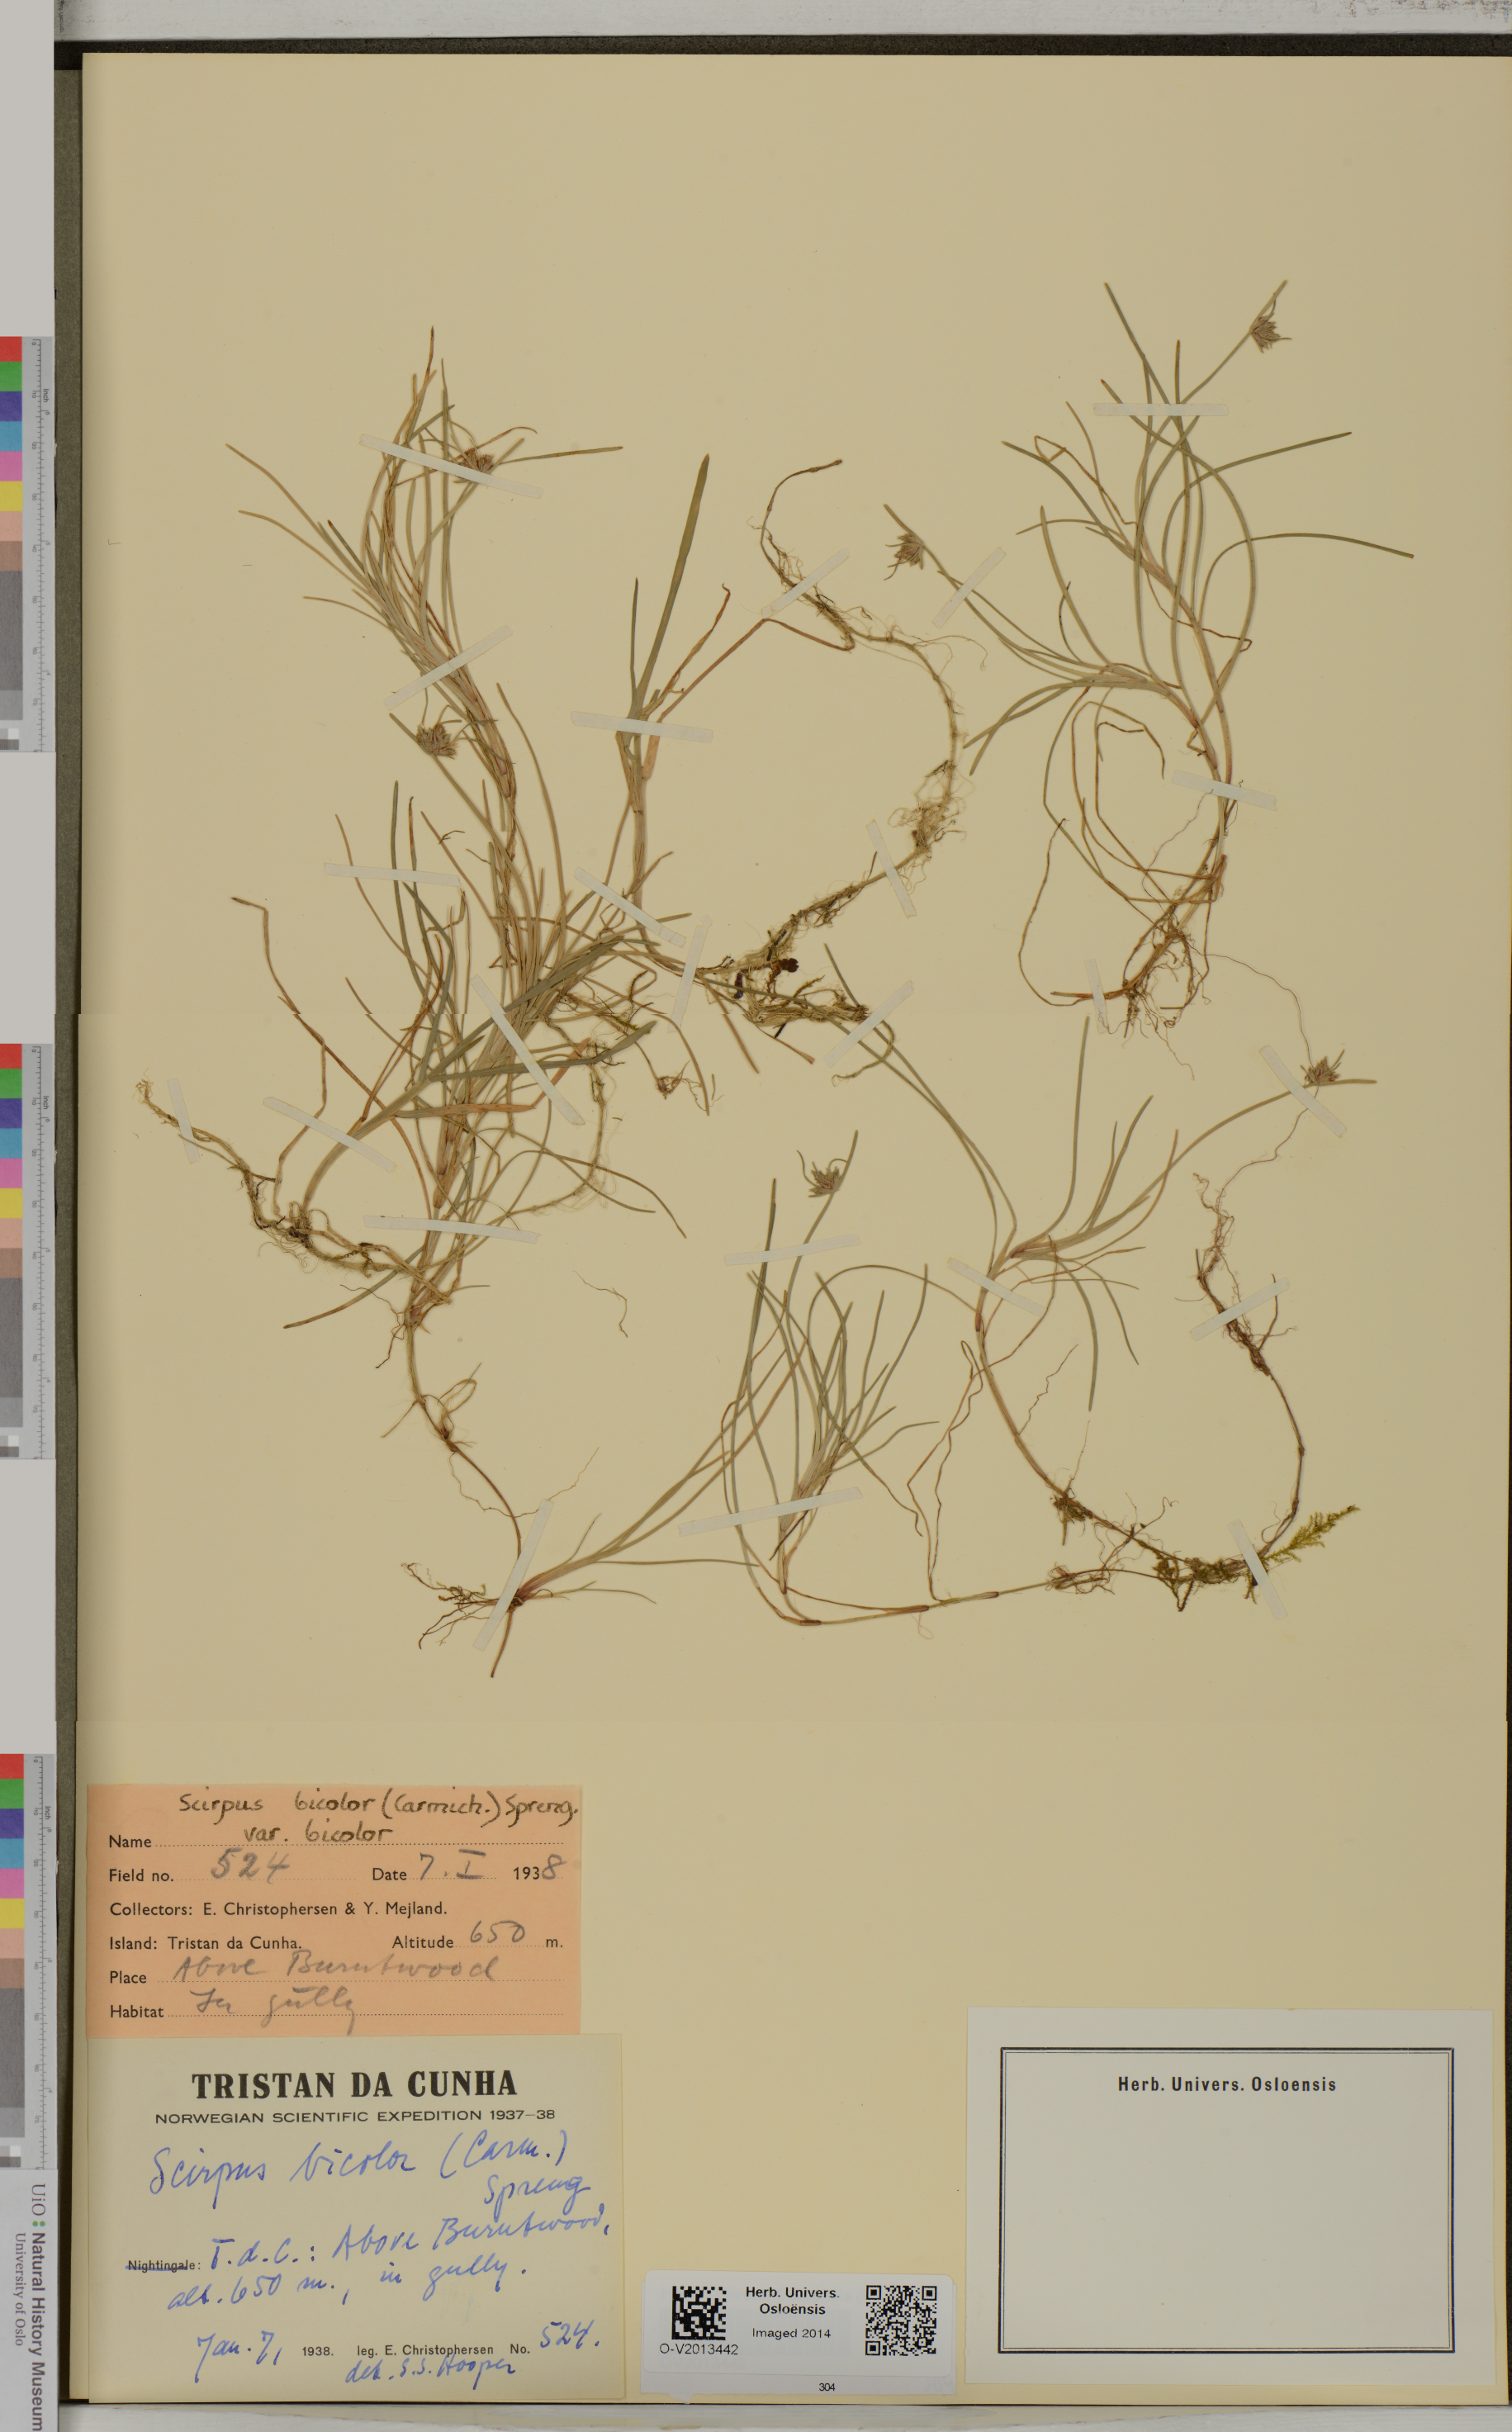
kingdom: Plantae
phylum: Tracheophyta
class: Liliopsida
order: Poales
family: Cyperaceae
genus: Isolepis
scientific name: Isolepis bicolor
